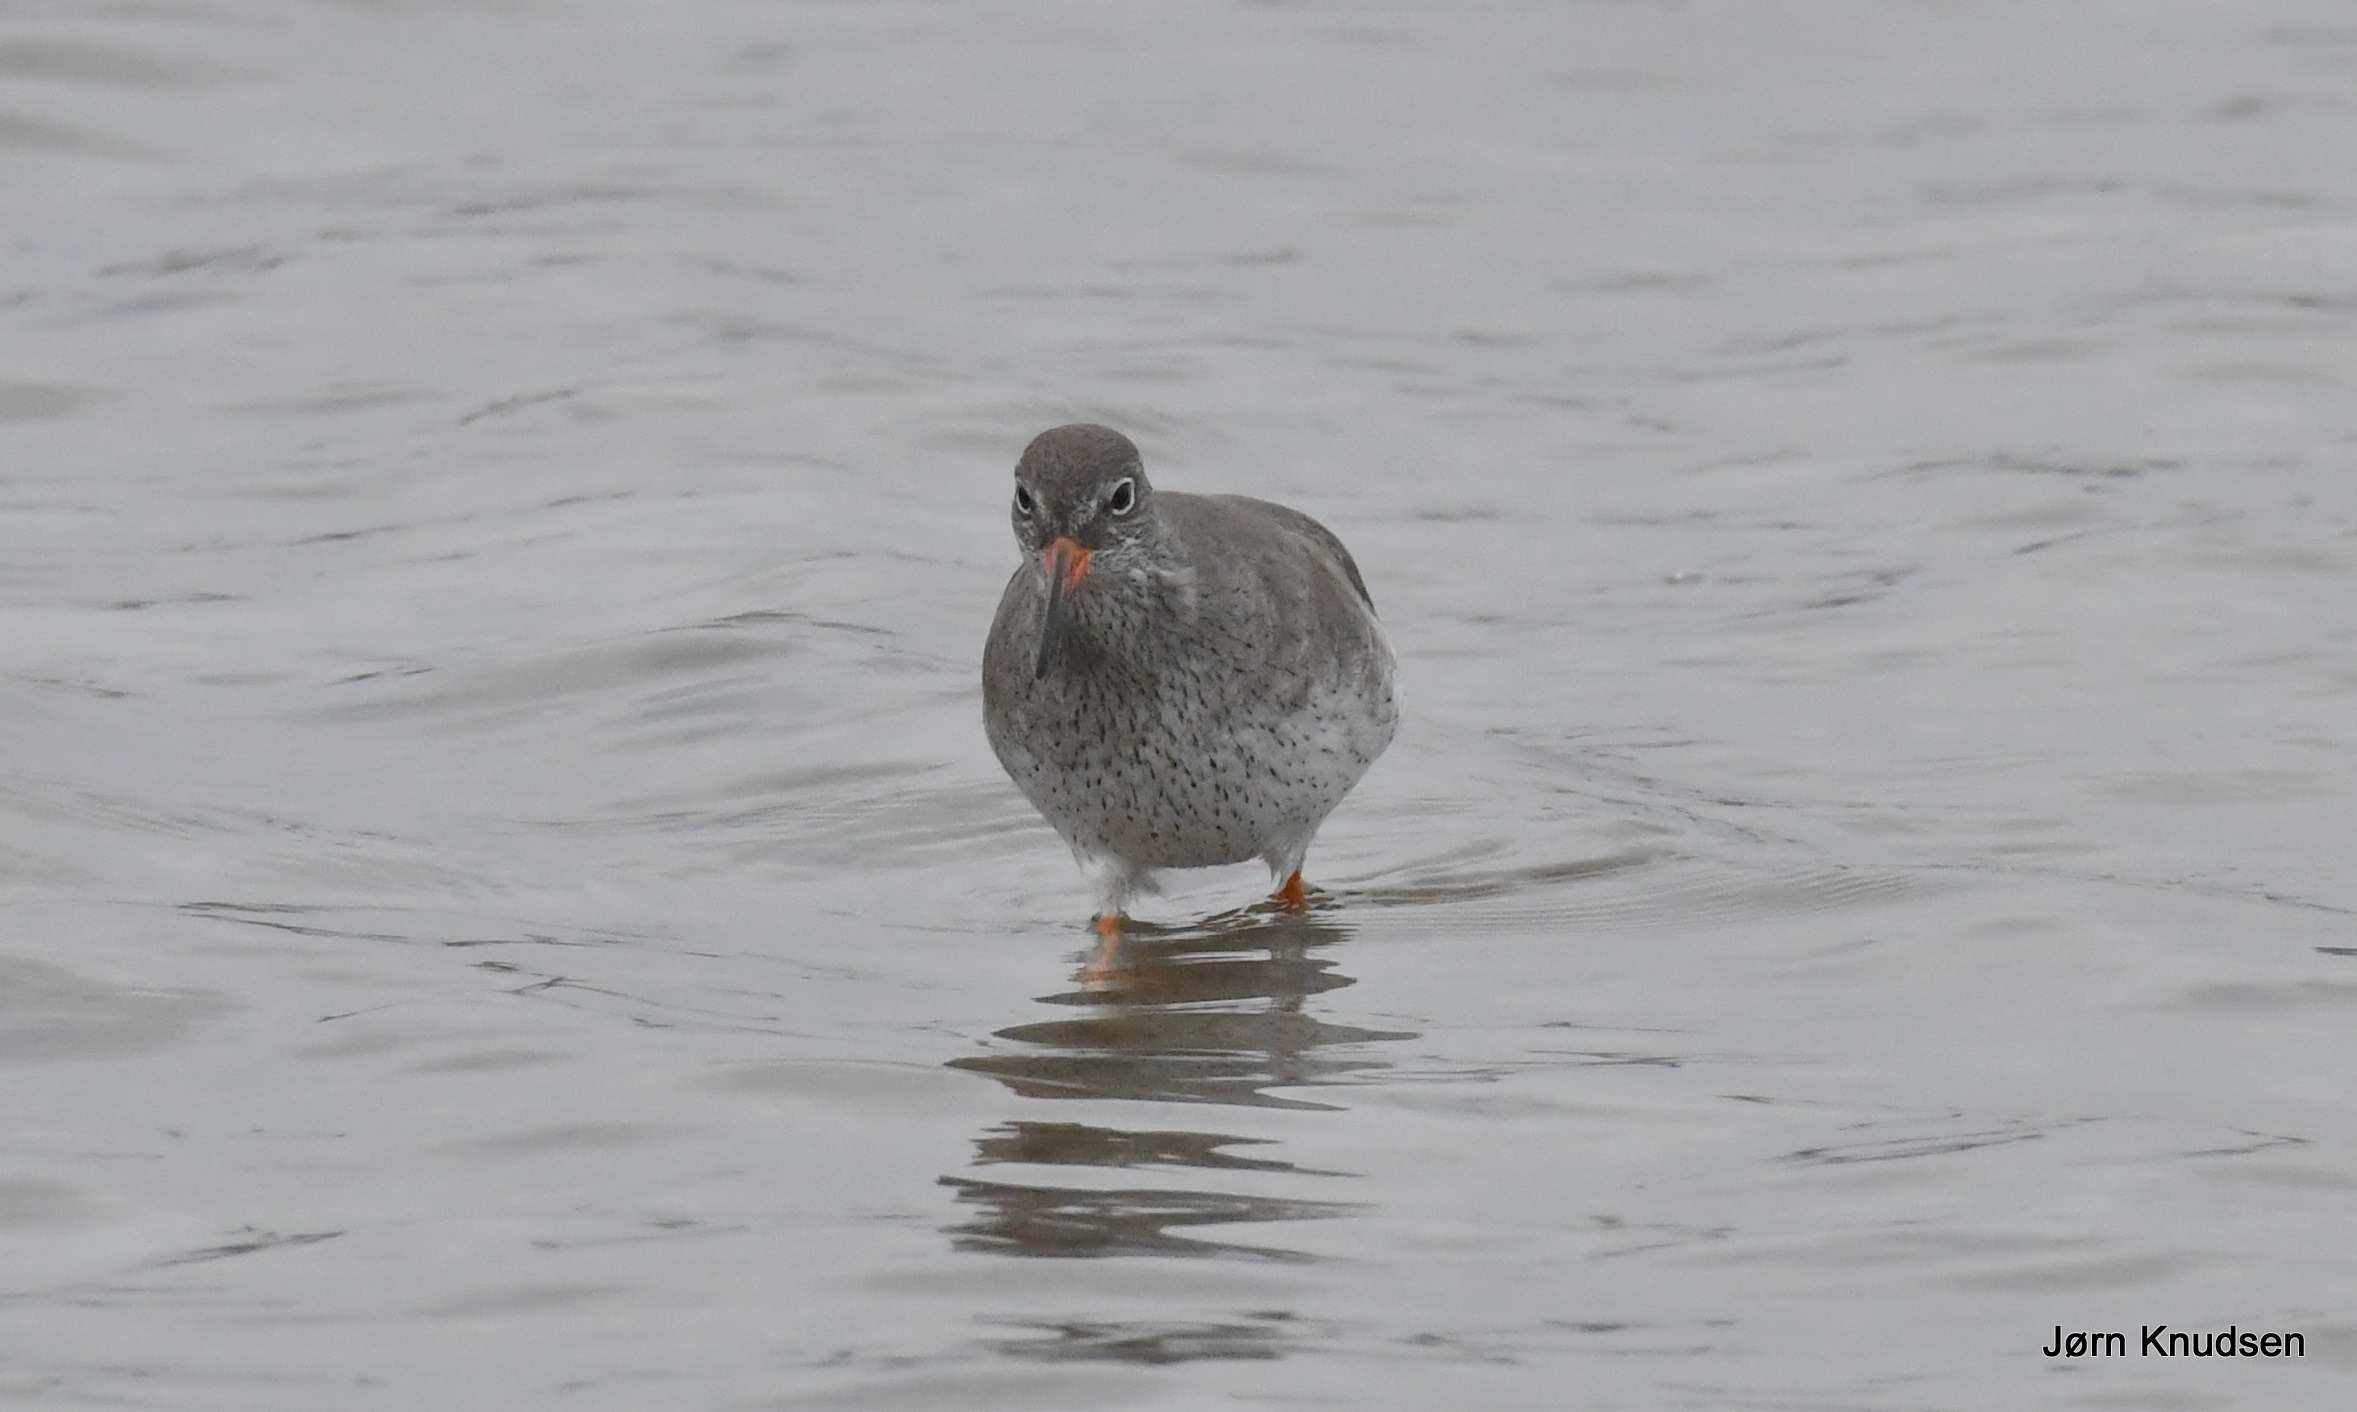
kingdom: Animalia
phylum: Chordata
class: Aves
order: Charadriiformes
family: Scolopacidae
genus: Tringa
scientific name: Tringa totanus
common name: Rødben
